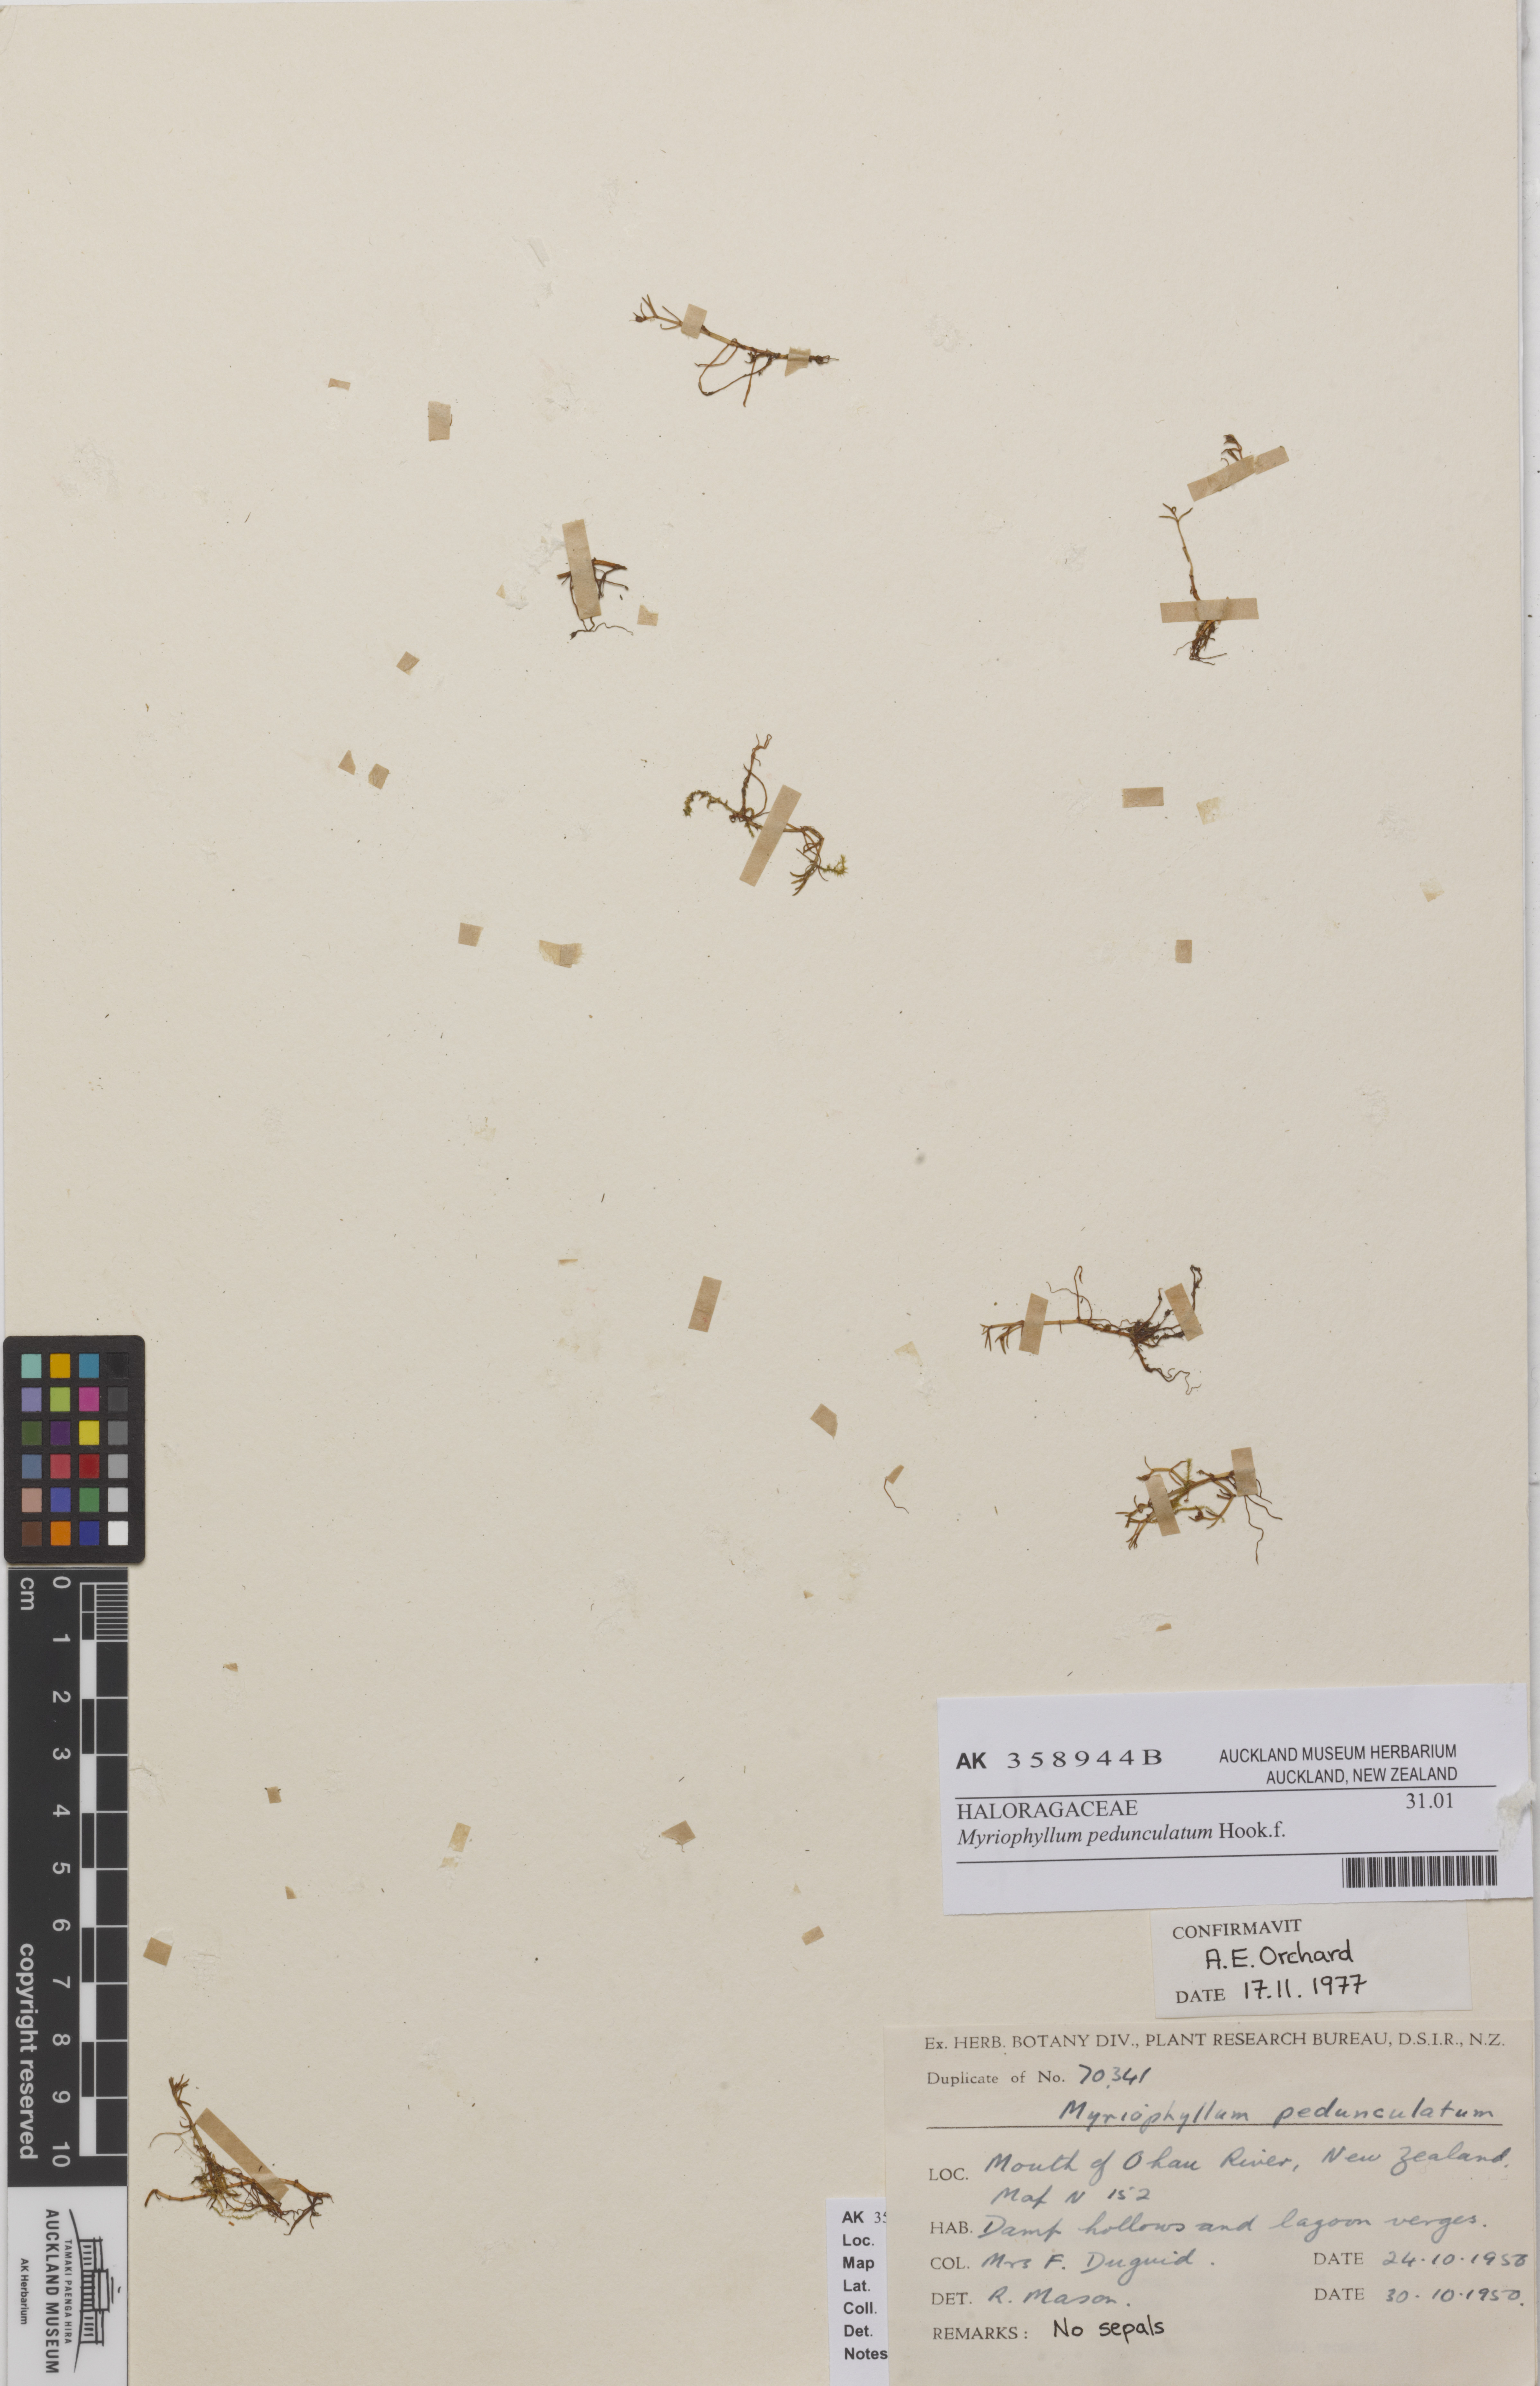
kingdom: Plantae
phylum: Tracheophyta
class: Magnoliopsida
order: Saxifragales
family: Haloragaceae
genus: Myriophyllum
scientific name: Myriophyllum pedunculatum
